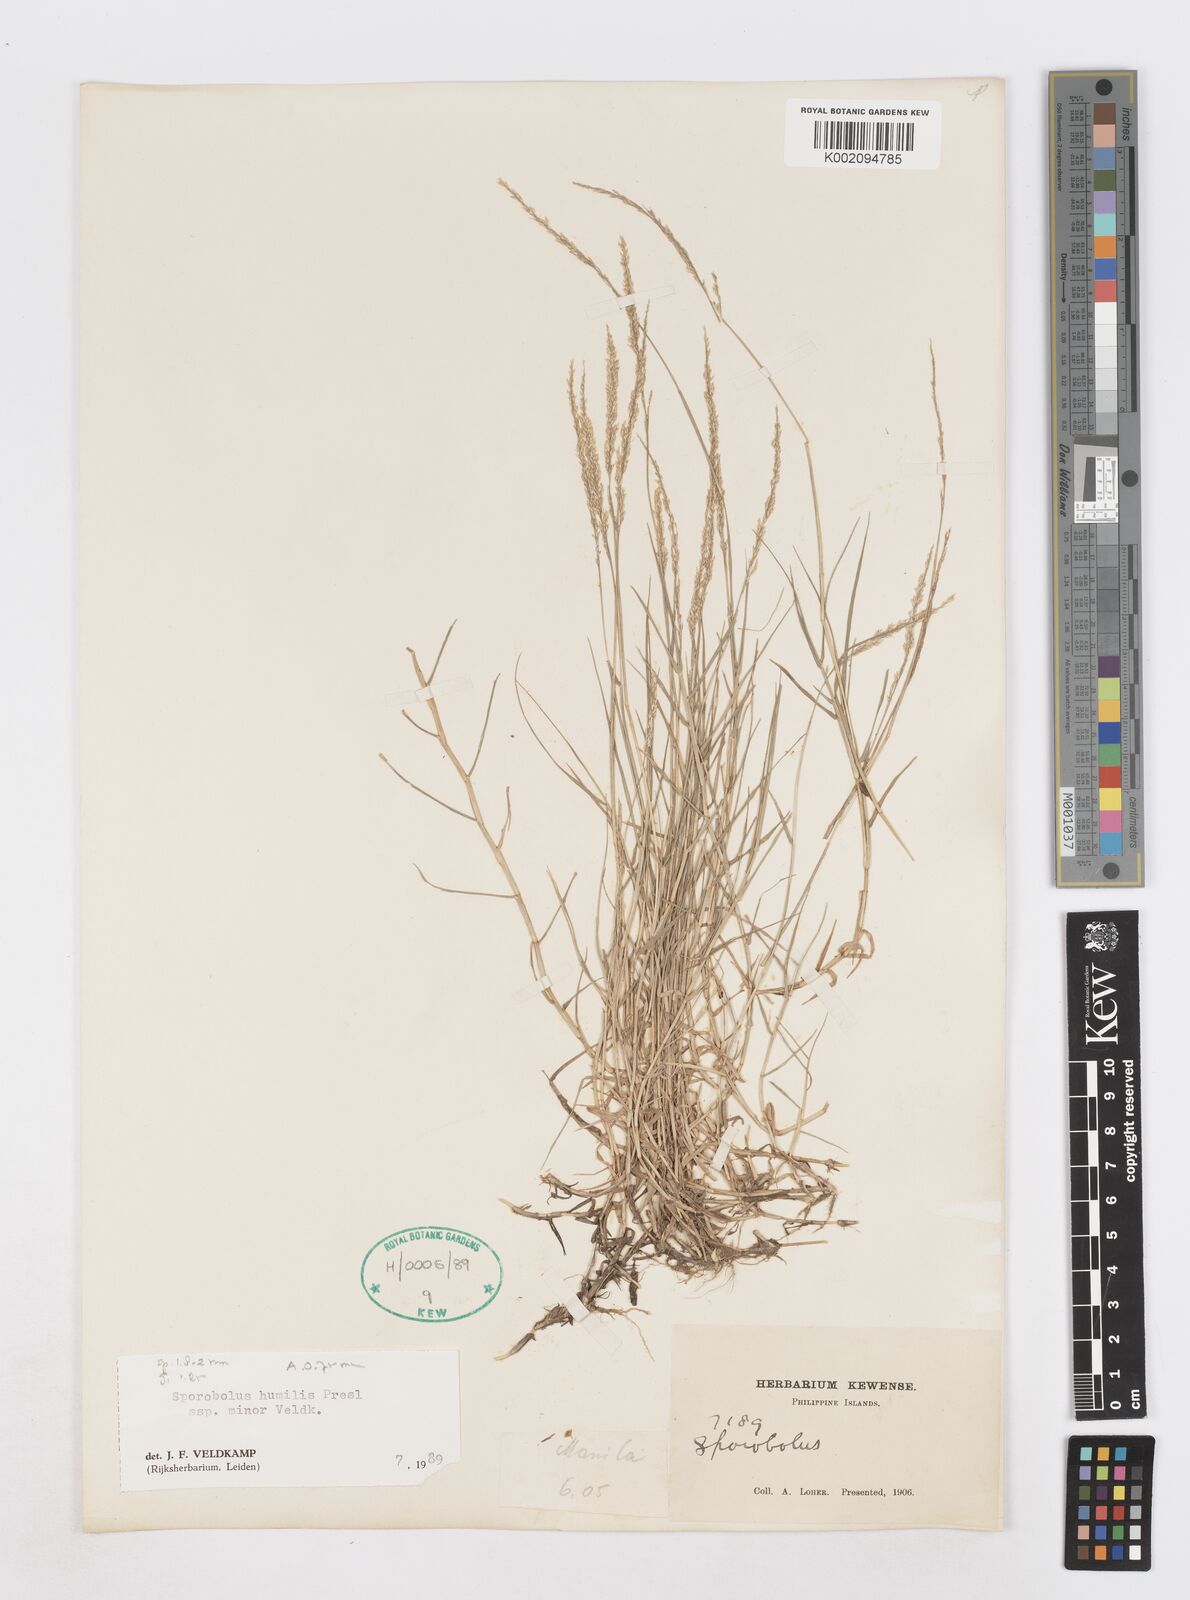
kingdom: Plantae
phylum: Tracheophyta
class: Liliopsida
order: Poales
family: Poaceae
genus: Sporobolus
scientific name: Sporobolus virginicus
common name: Beach dropseed
